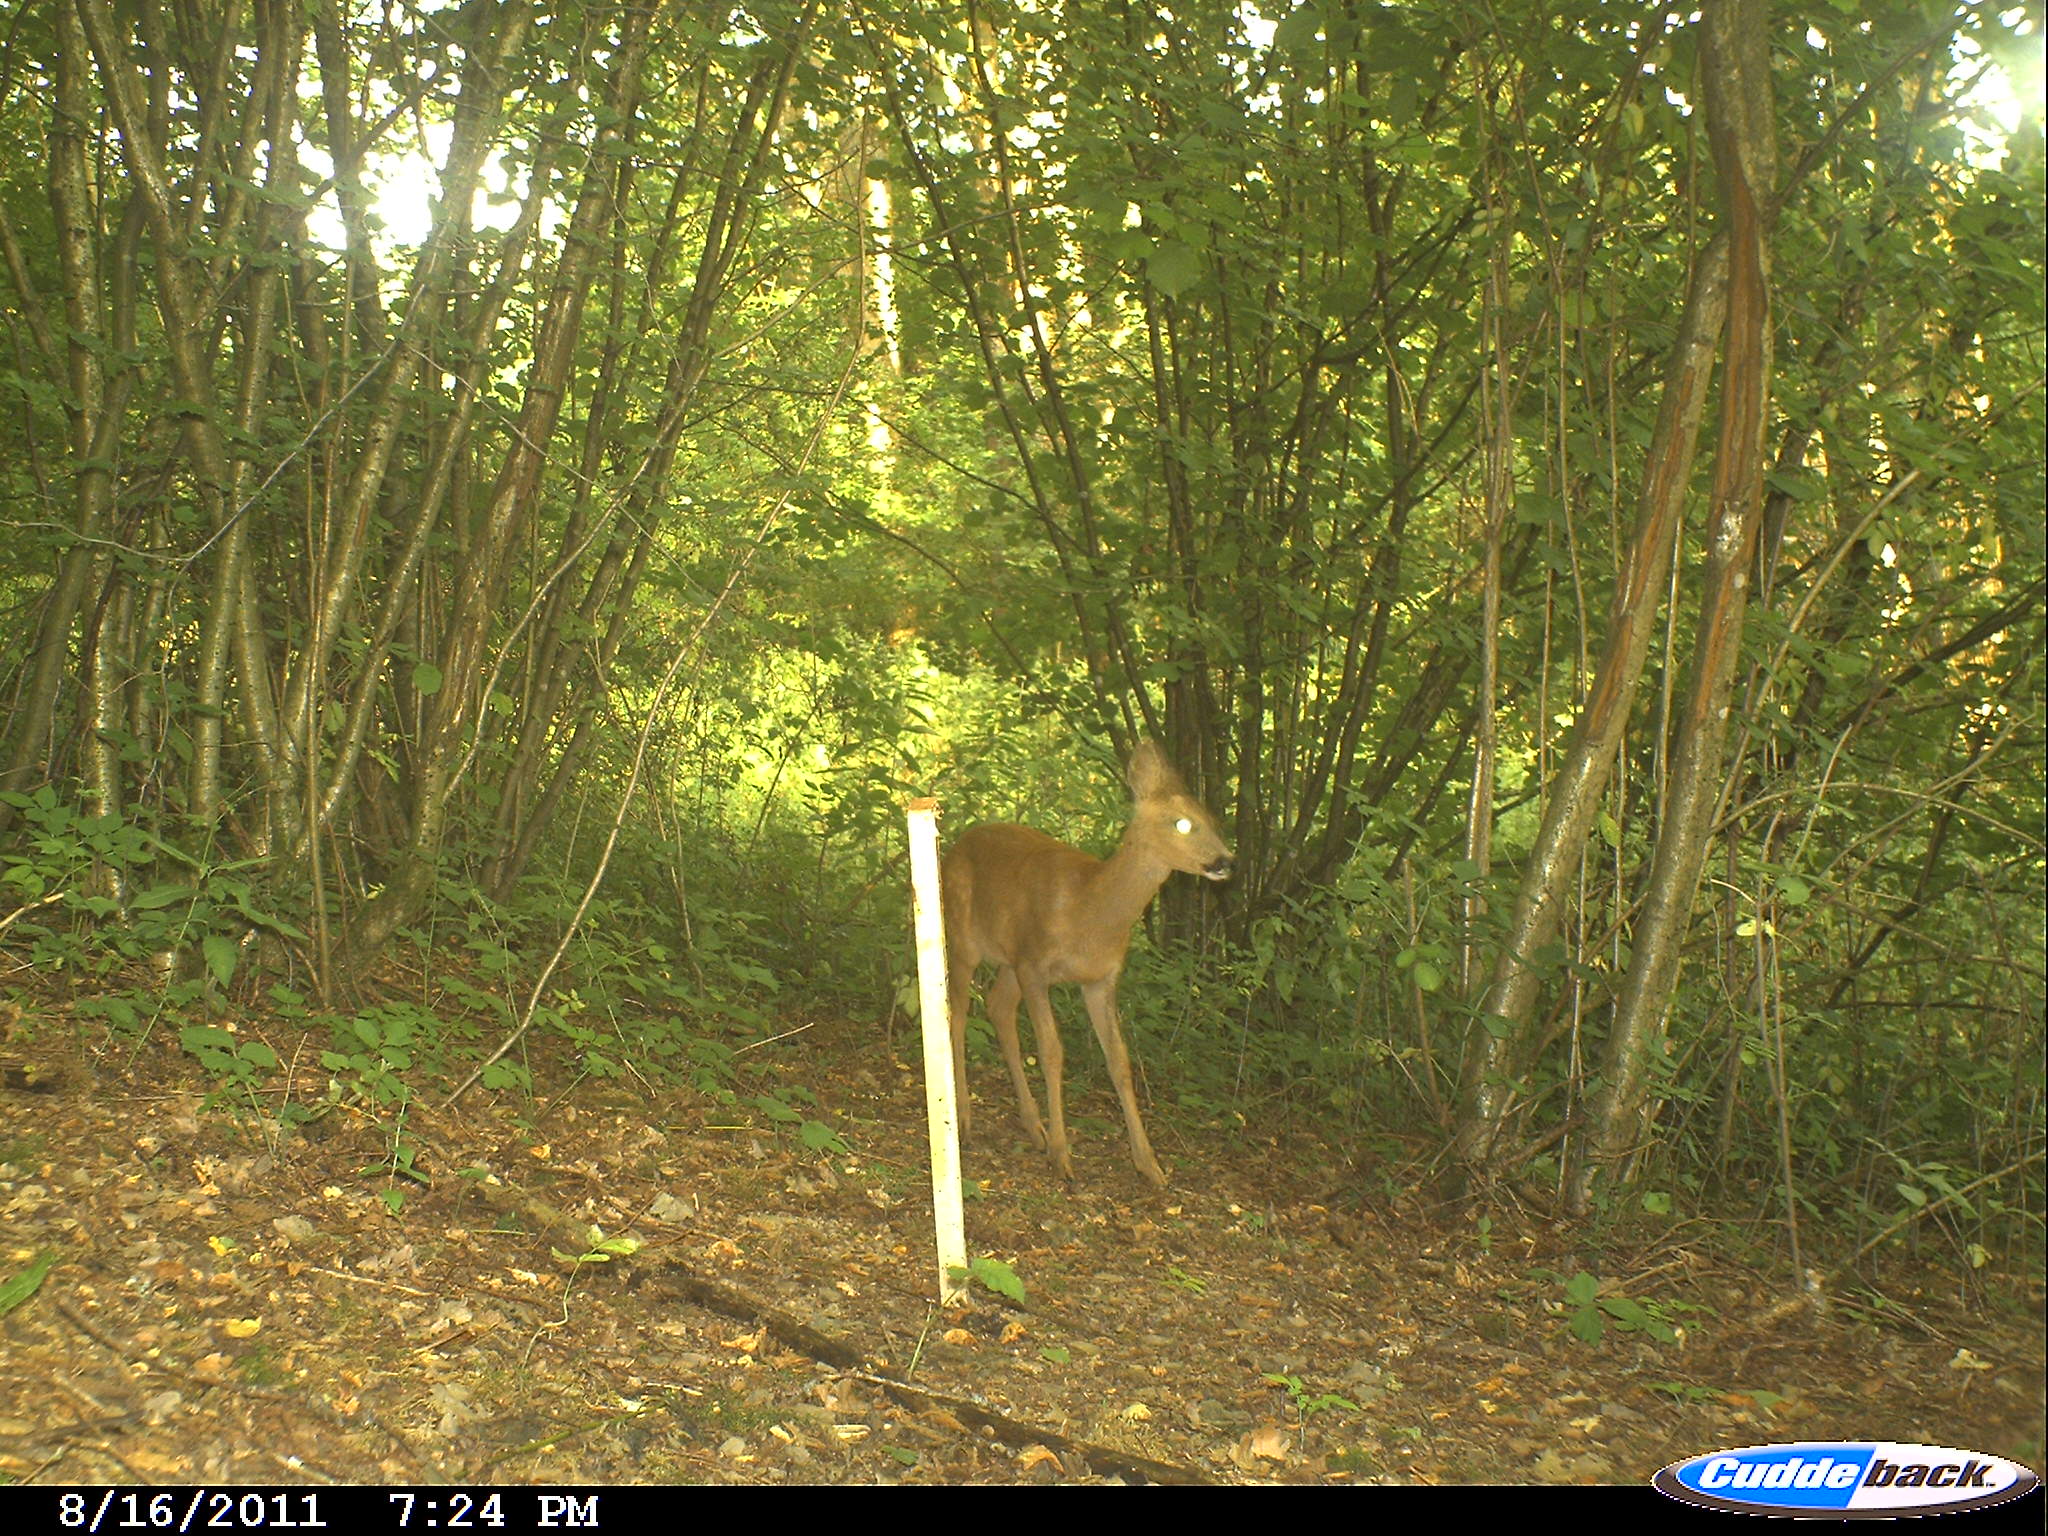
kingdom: Animalia
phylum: Chordata
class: Mammalia
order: Artiodactyla
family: Cervidae
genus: Capreolus
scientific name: Capreolus capreolus
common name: Western roe deer
